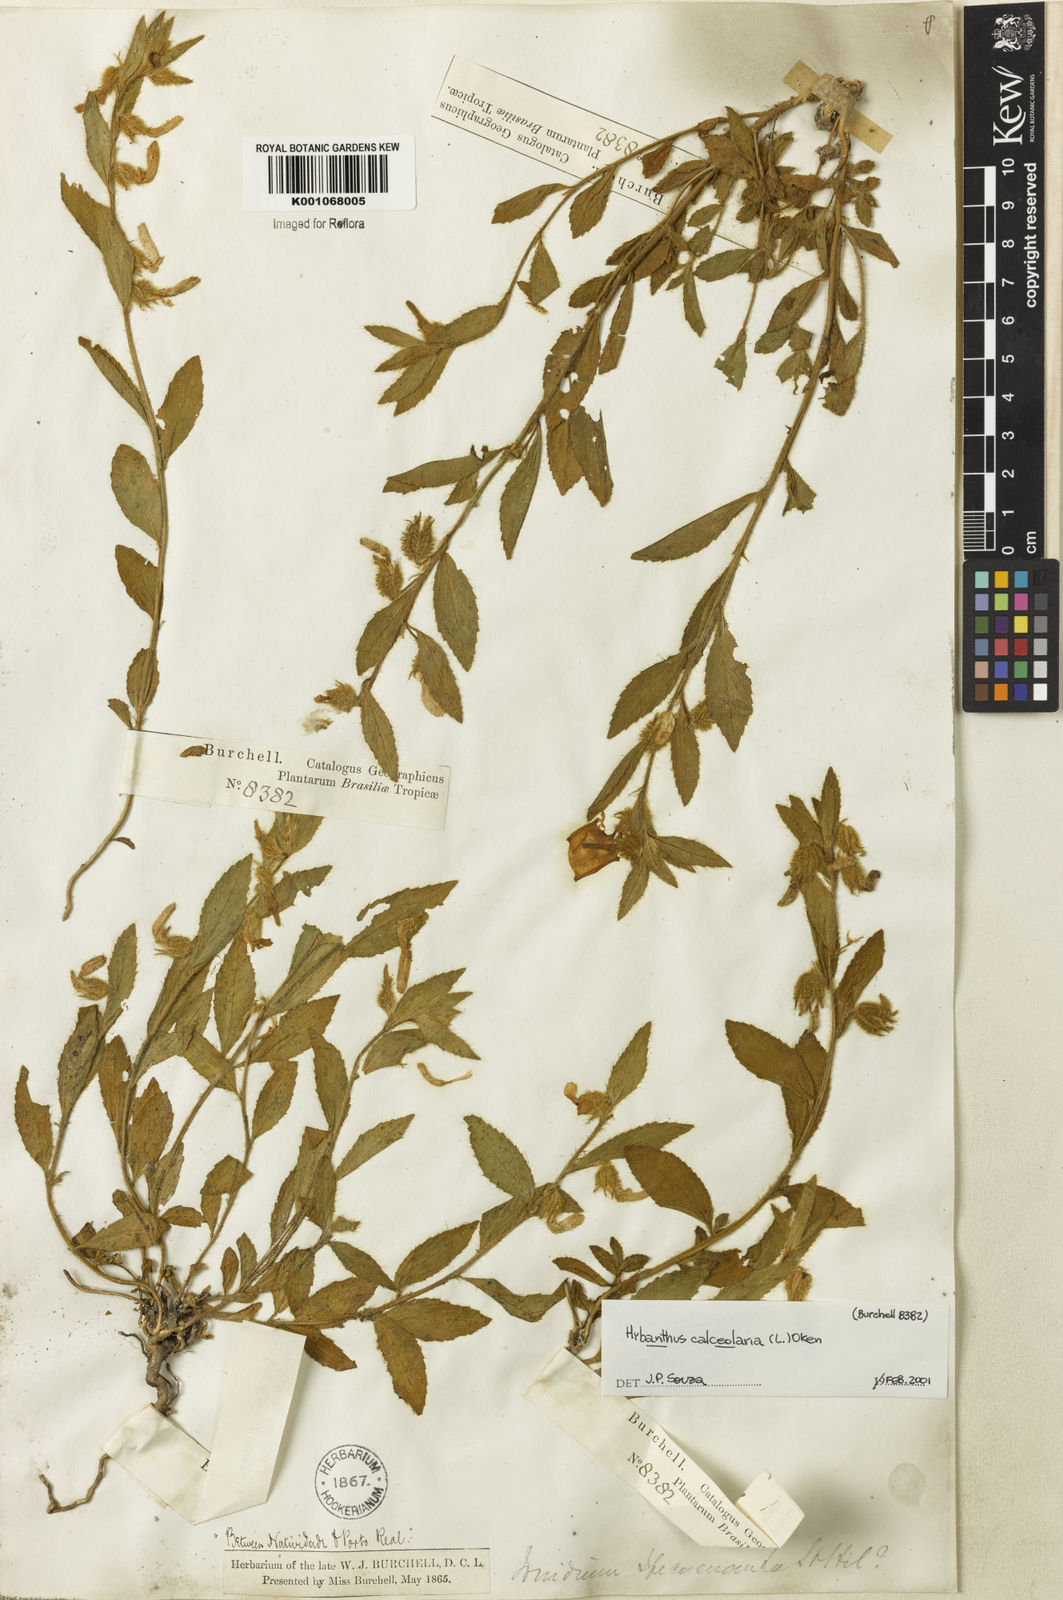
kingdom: Plantae
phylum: Tracheophyta
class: Magnoliopsida
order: Malpighiales
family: Violaceae
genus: Hybanthus
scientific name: Hybanthus
